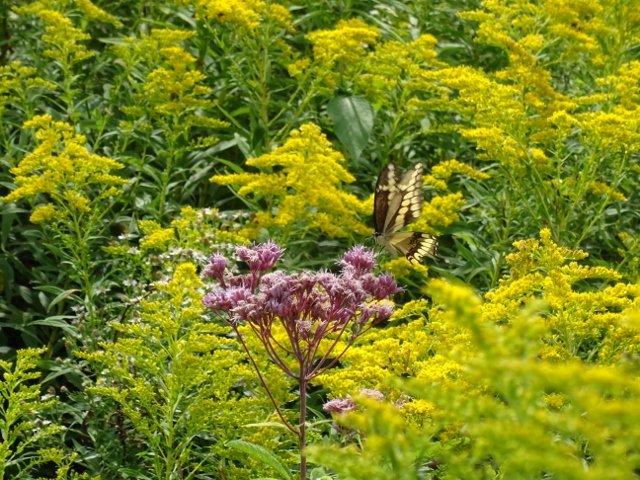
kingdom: Animalia
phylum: Arthropoda
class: Insecta
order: Lepidoptera
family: Papilionidae
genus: Papilio
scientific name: Papilio cresphontes
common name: Eastern Giant Swallowtail
